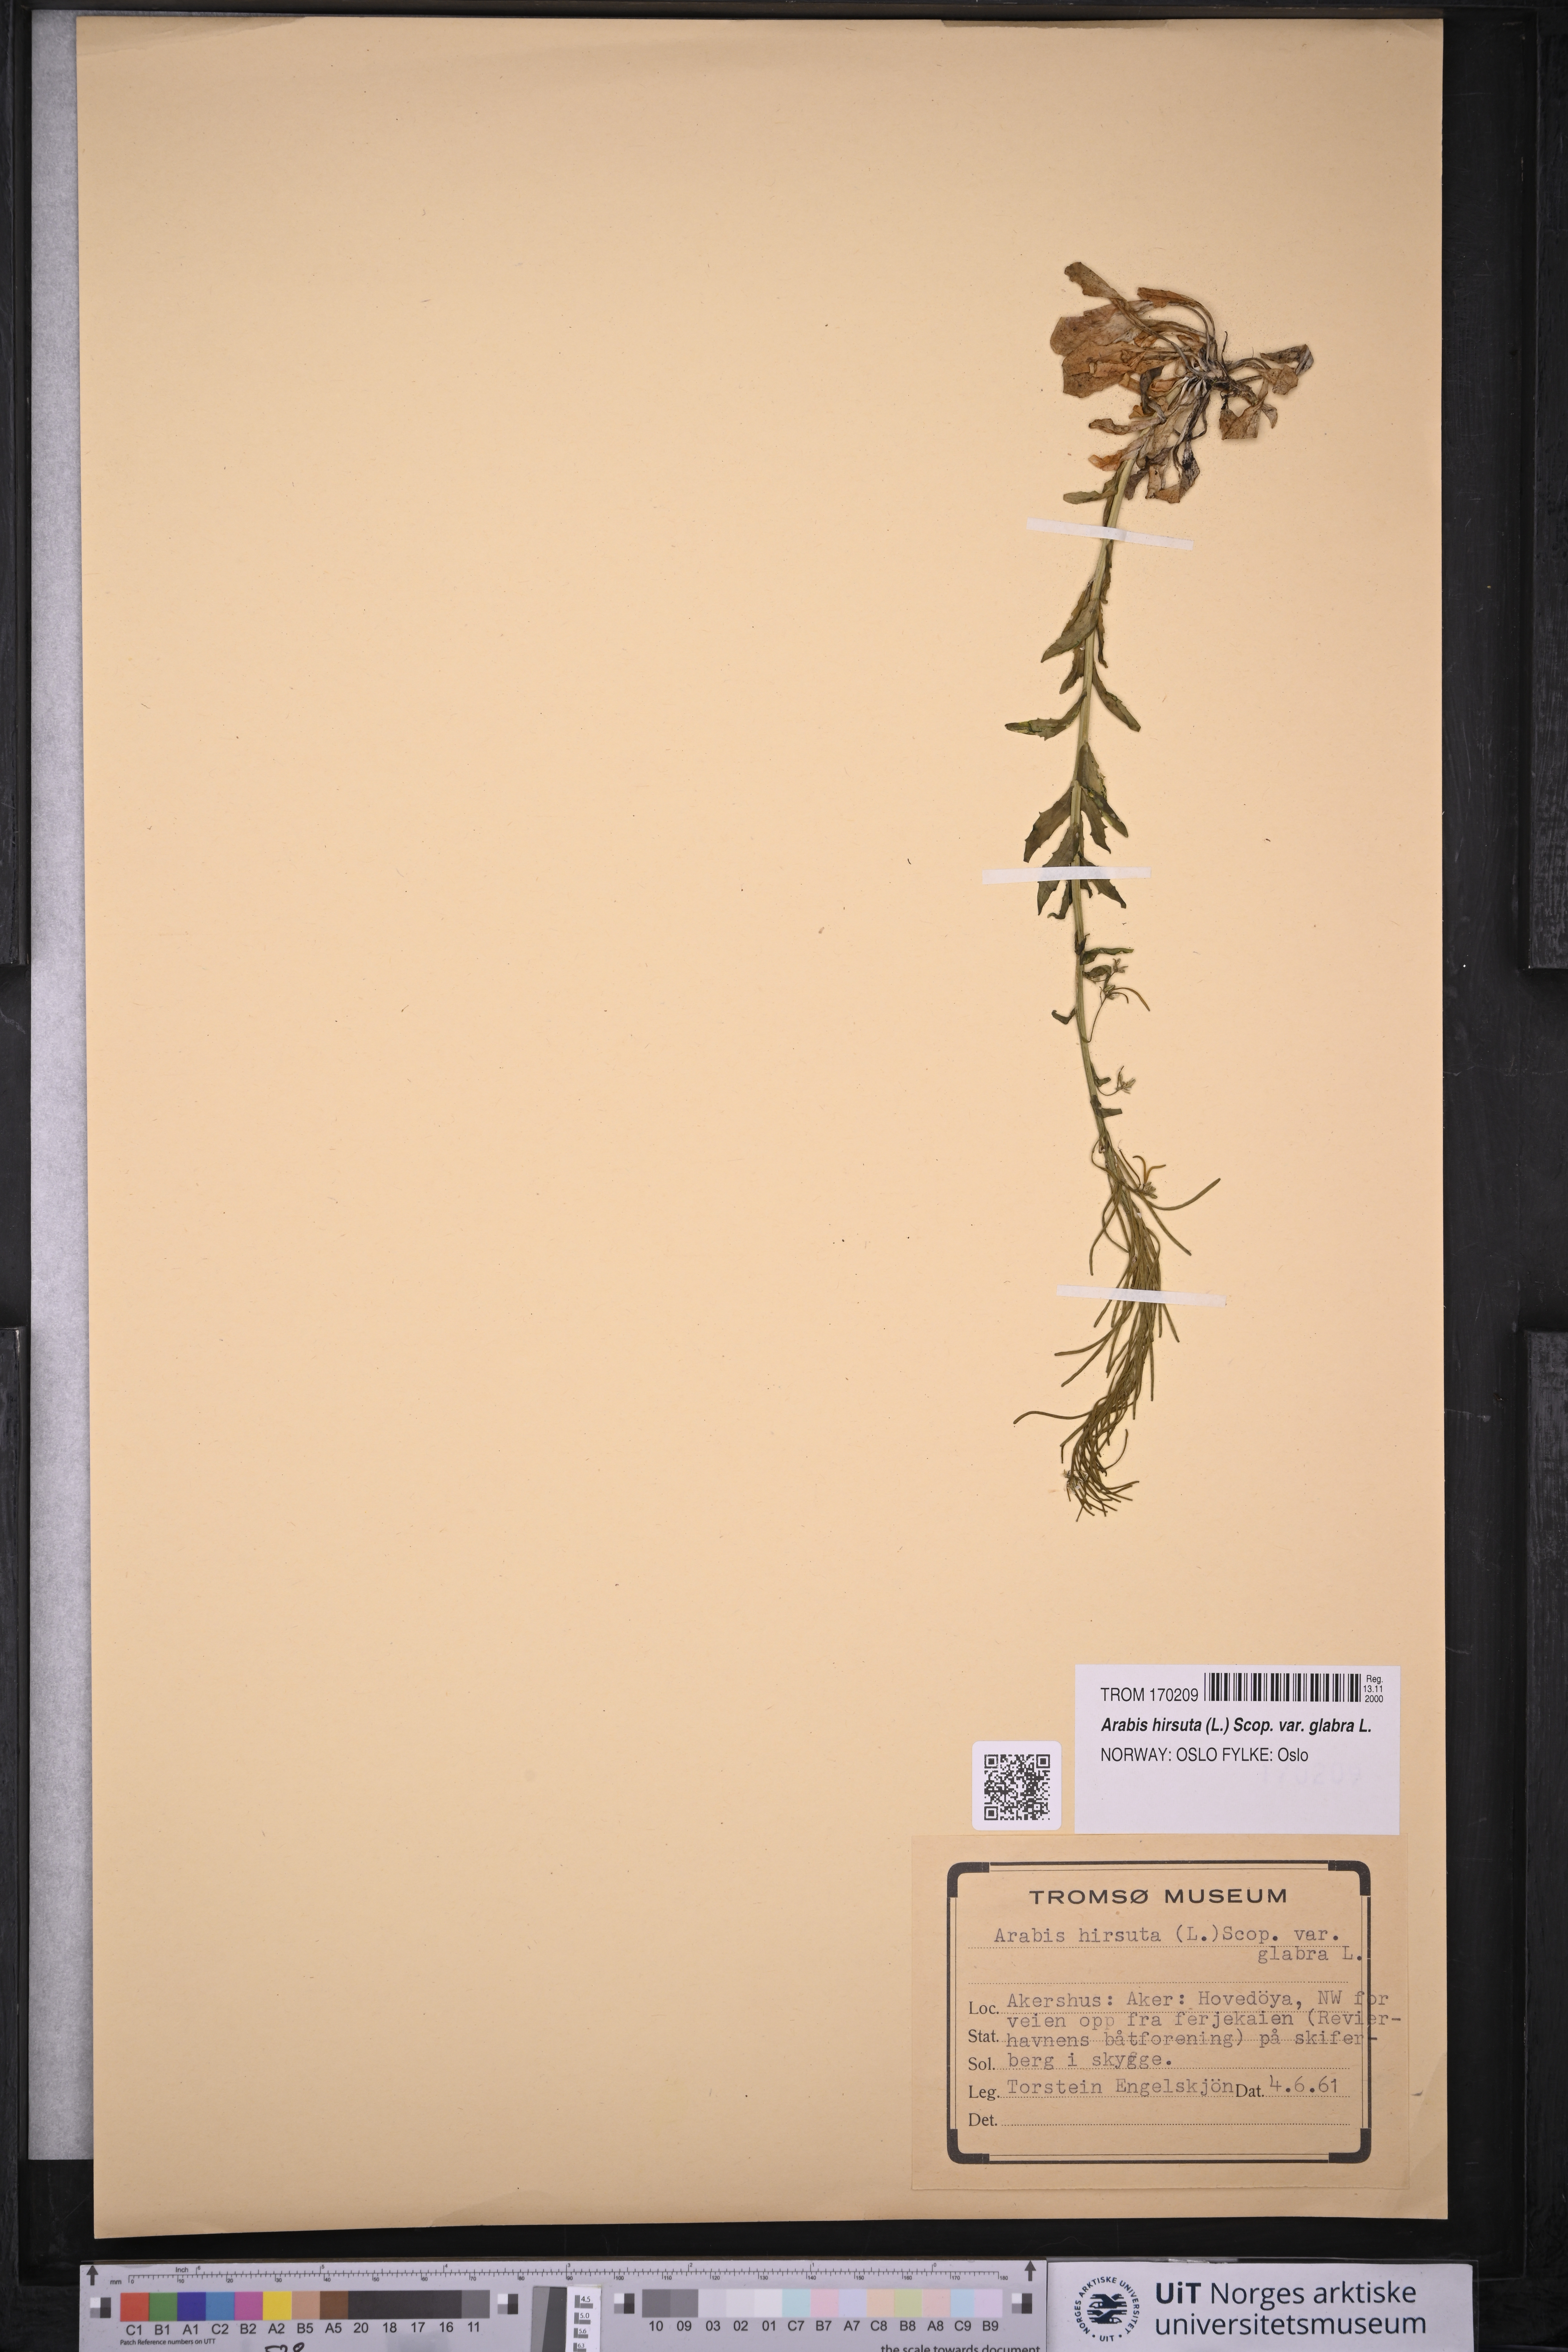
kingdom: Plantae
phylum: Tracheophyta
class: Magnoliopsida
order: Brassicales
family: Brassicaceae
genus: Arabis
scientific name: Arabis hirsuta
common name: Hairy rock-cress
